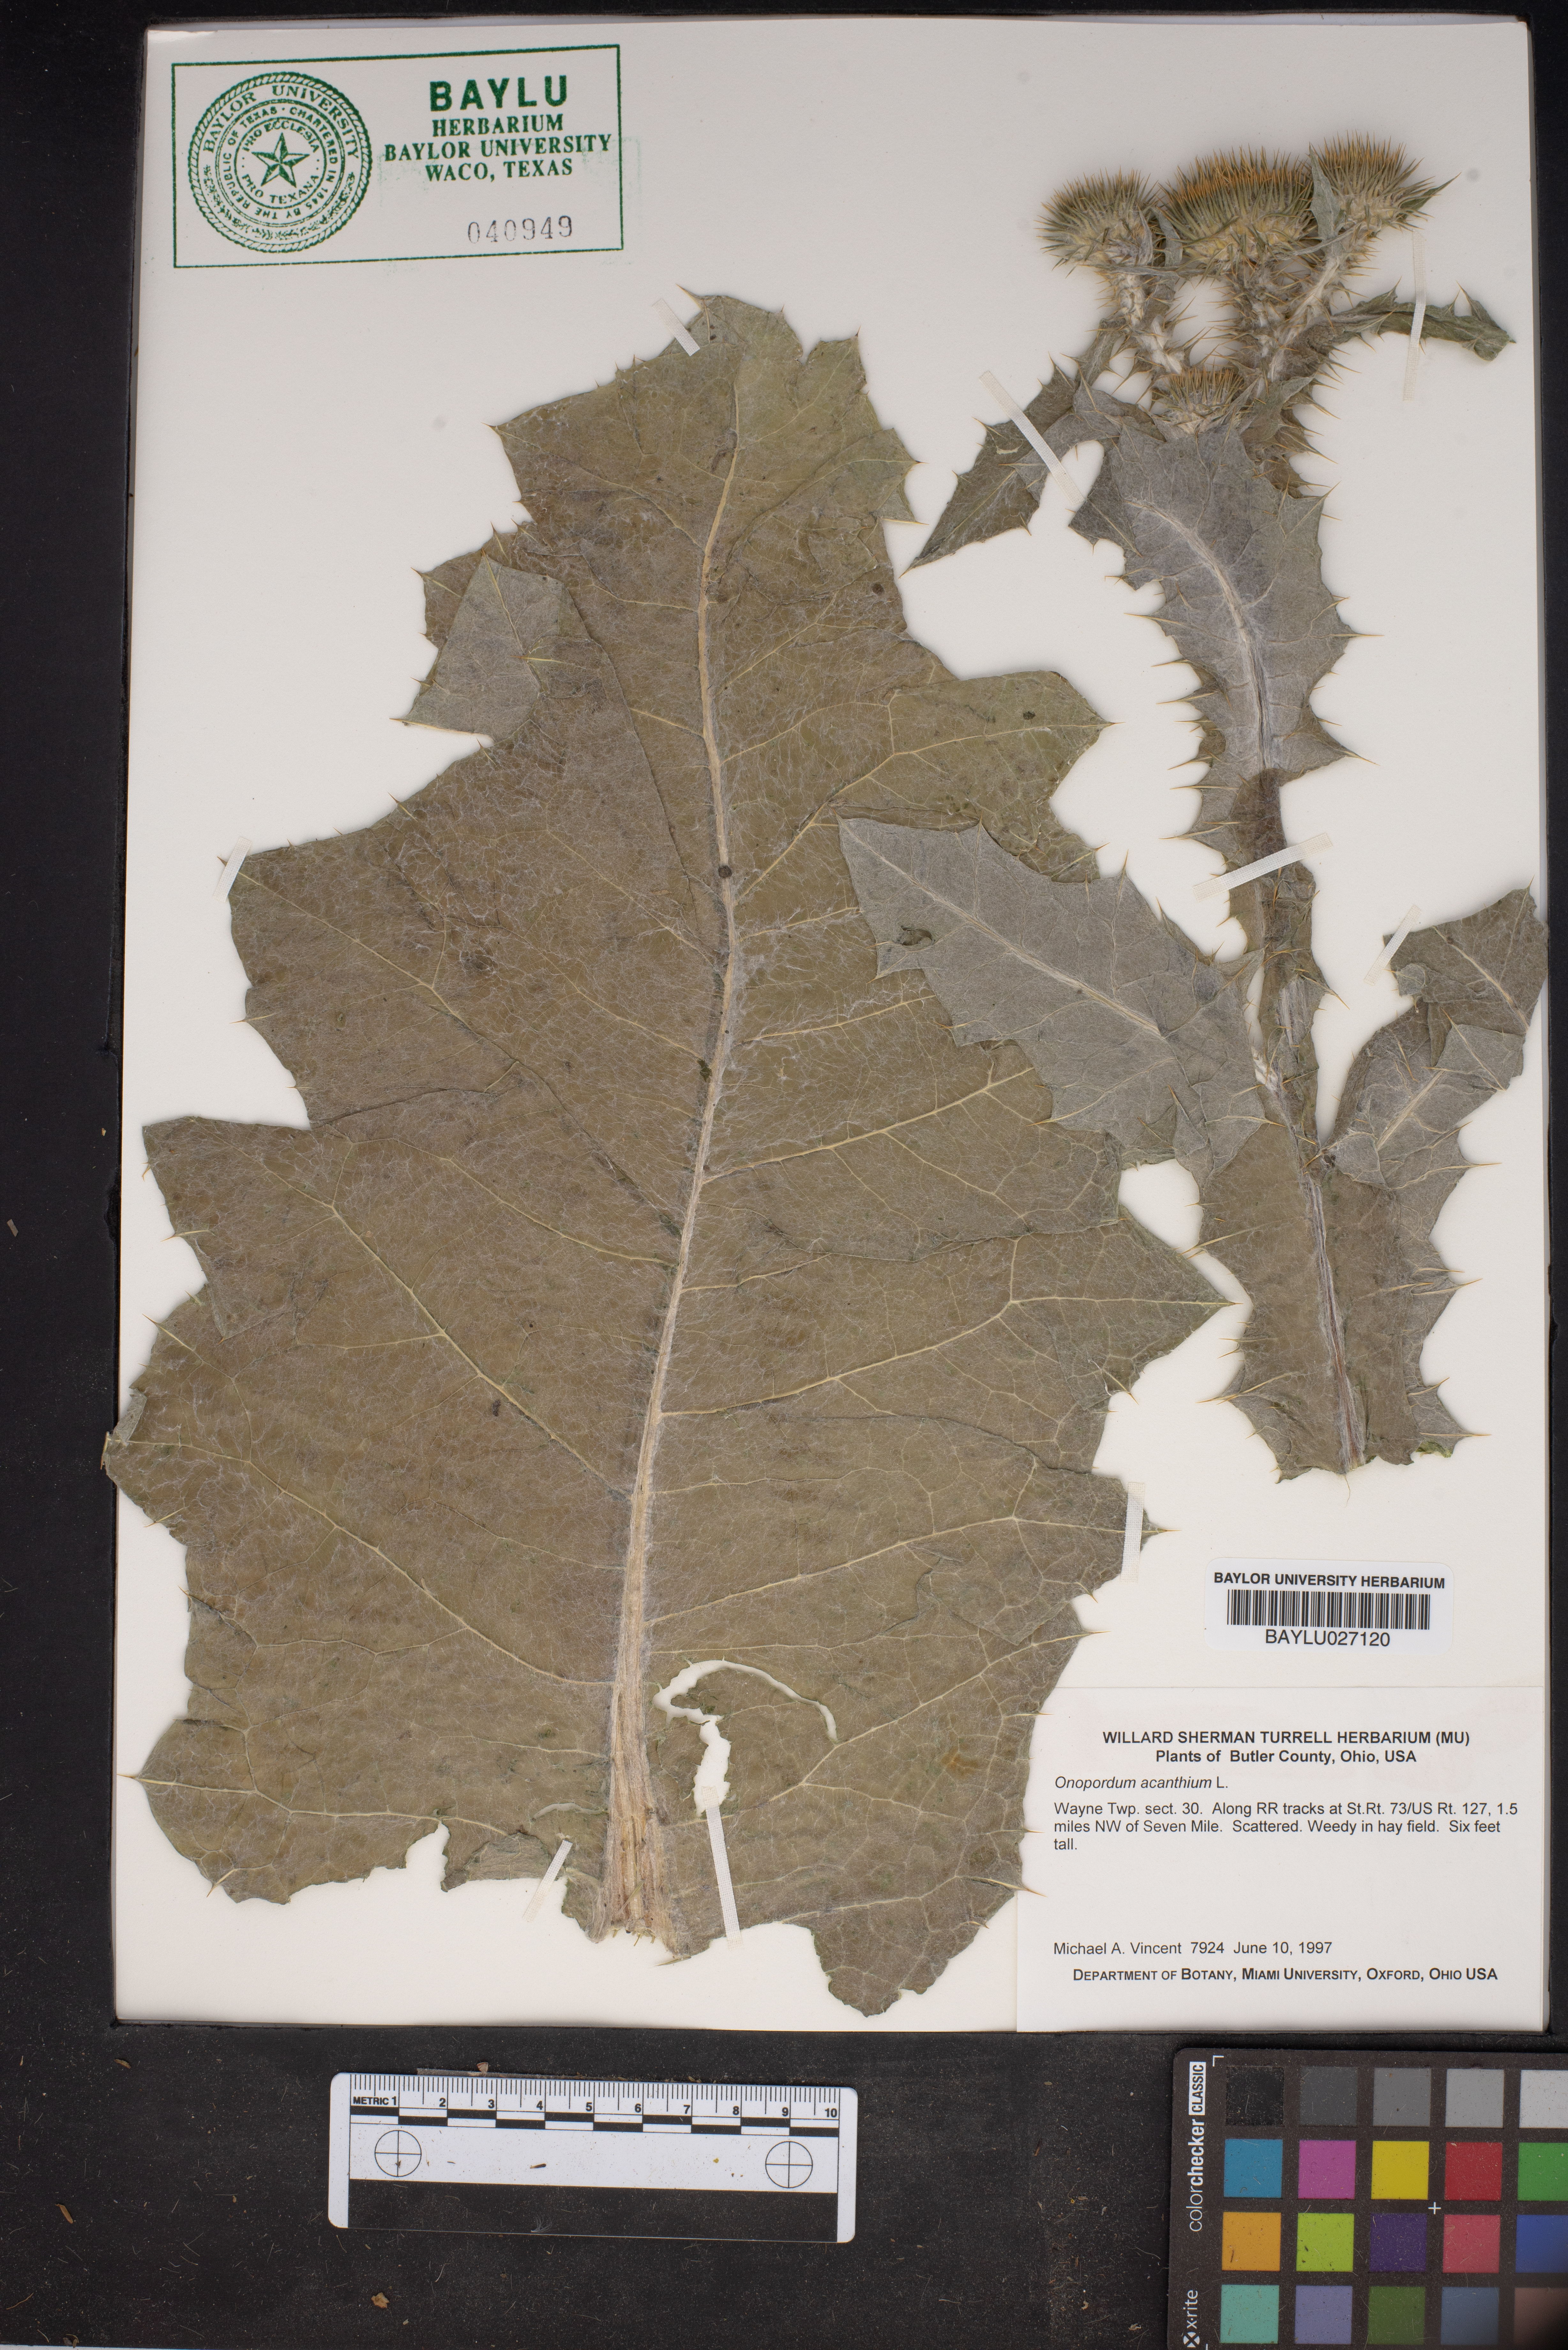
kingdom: Plantae
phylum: Tracheophyta
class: Magnoliopsida
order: Asterales
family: Asteraceae
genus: Onopordum
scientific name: Onopordum acanthium
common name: Scotch thistle
